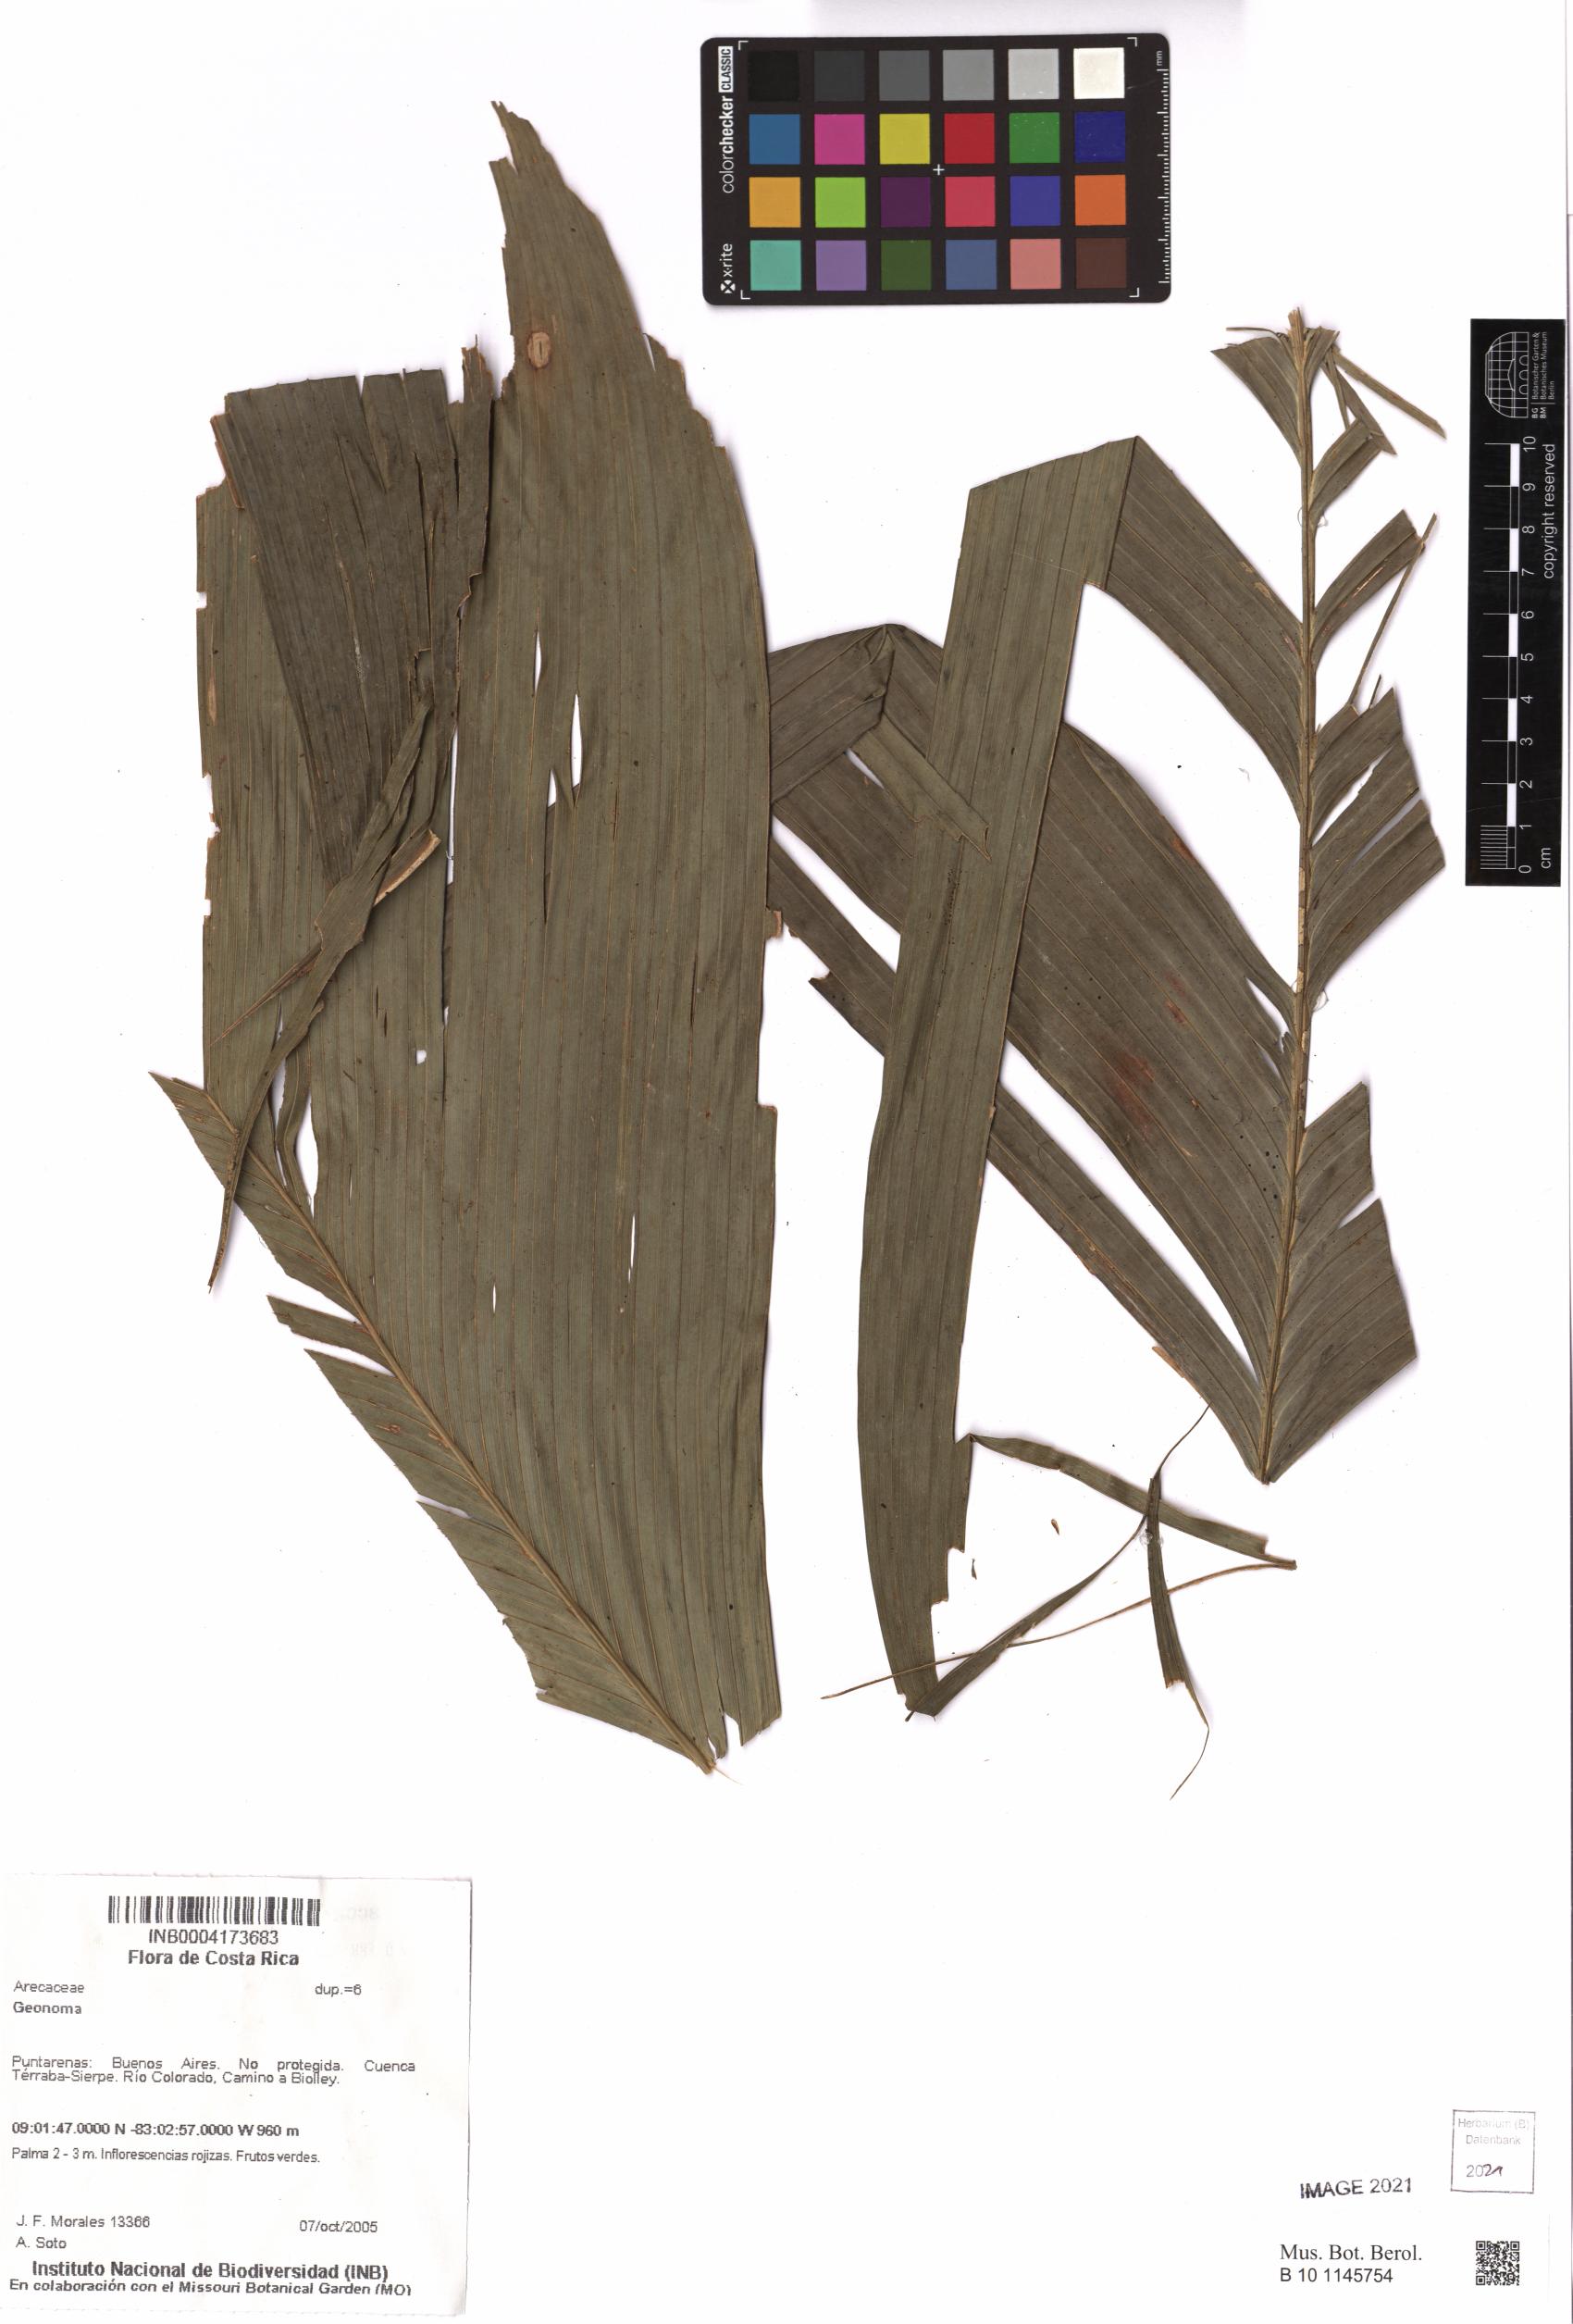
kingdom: Plantae
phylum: Tracheophyta
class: Liliopsida
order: Arecales
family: Arecaceae
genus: Geonoma
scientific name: Geonoma
